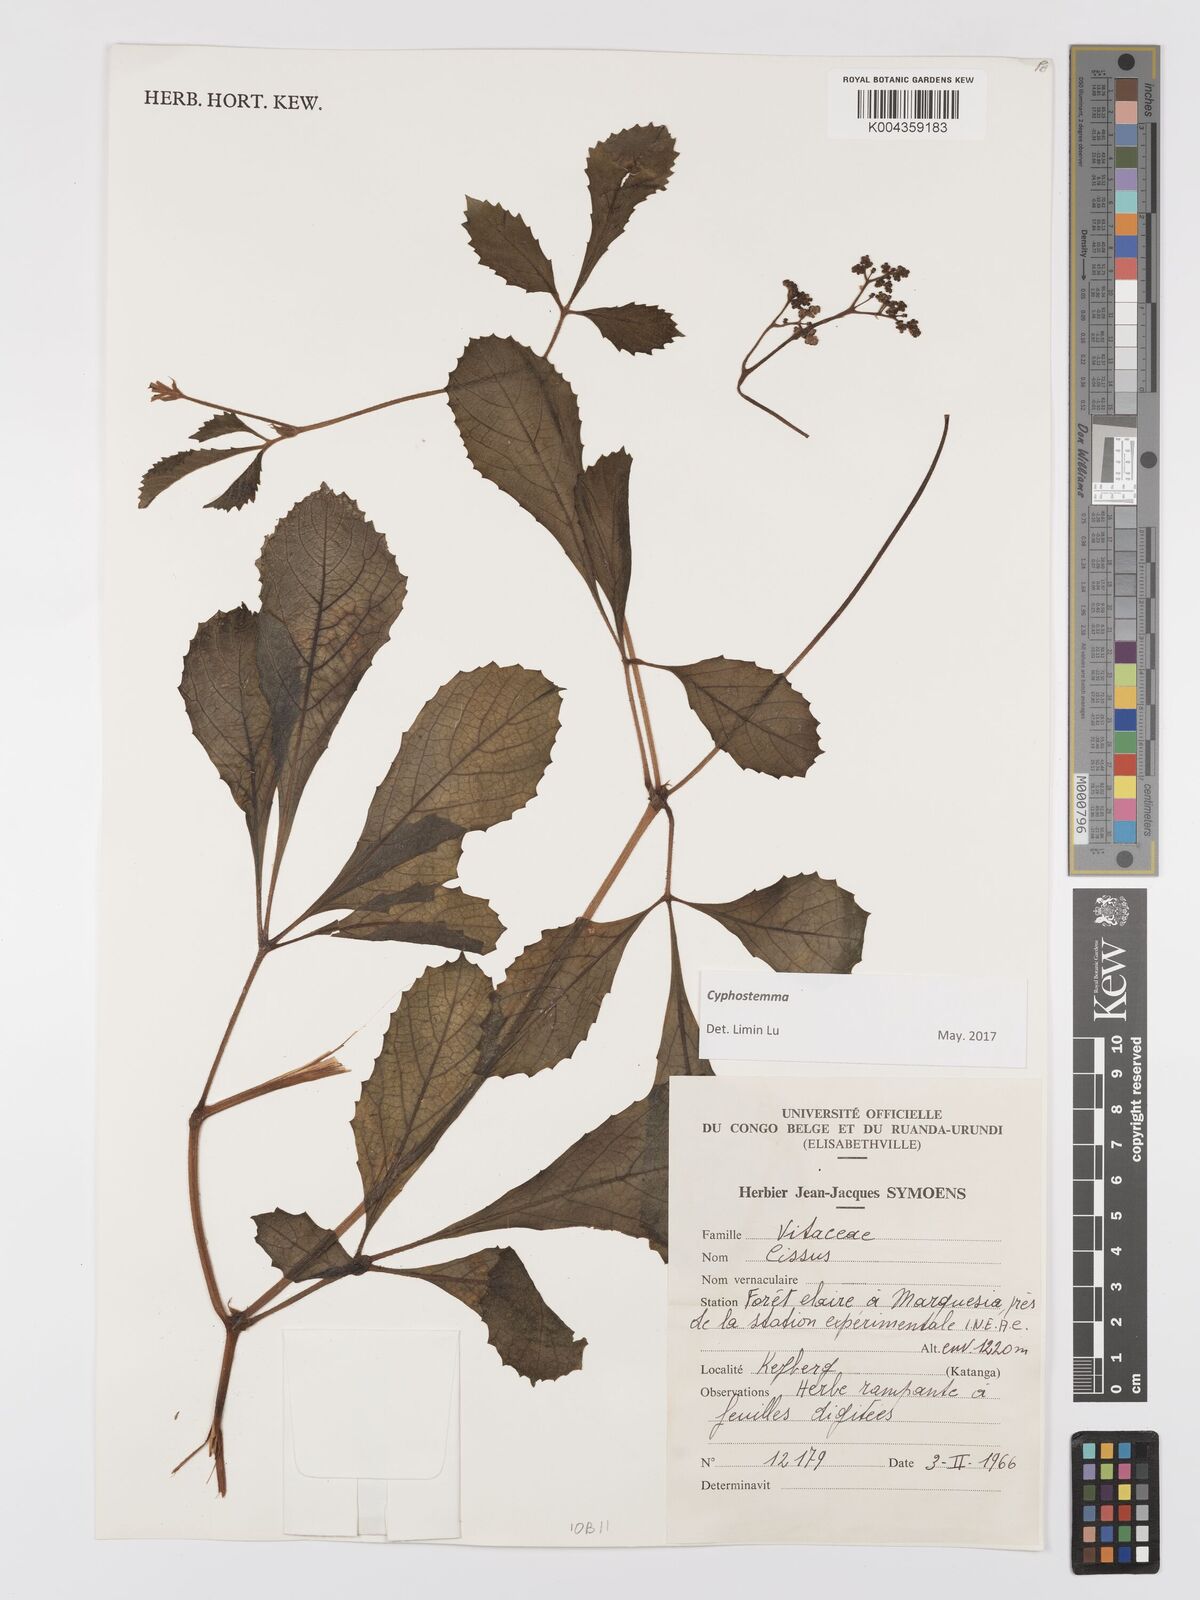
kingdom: Plantae
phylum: Tracheophyta
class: Magnoliopsida
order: Vitales
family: Vitaceae
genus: Cyphostemma
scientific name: Cyphostemma njegerre
